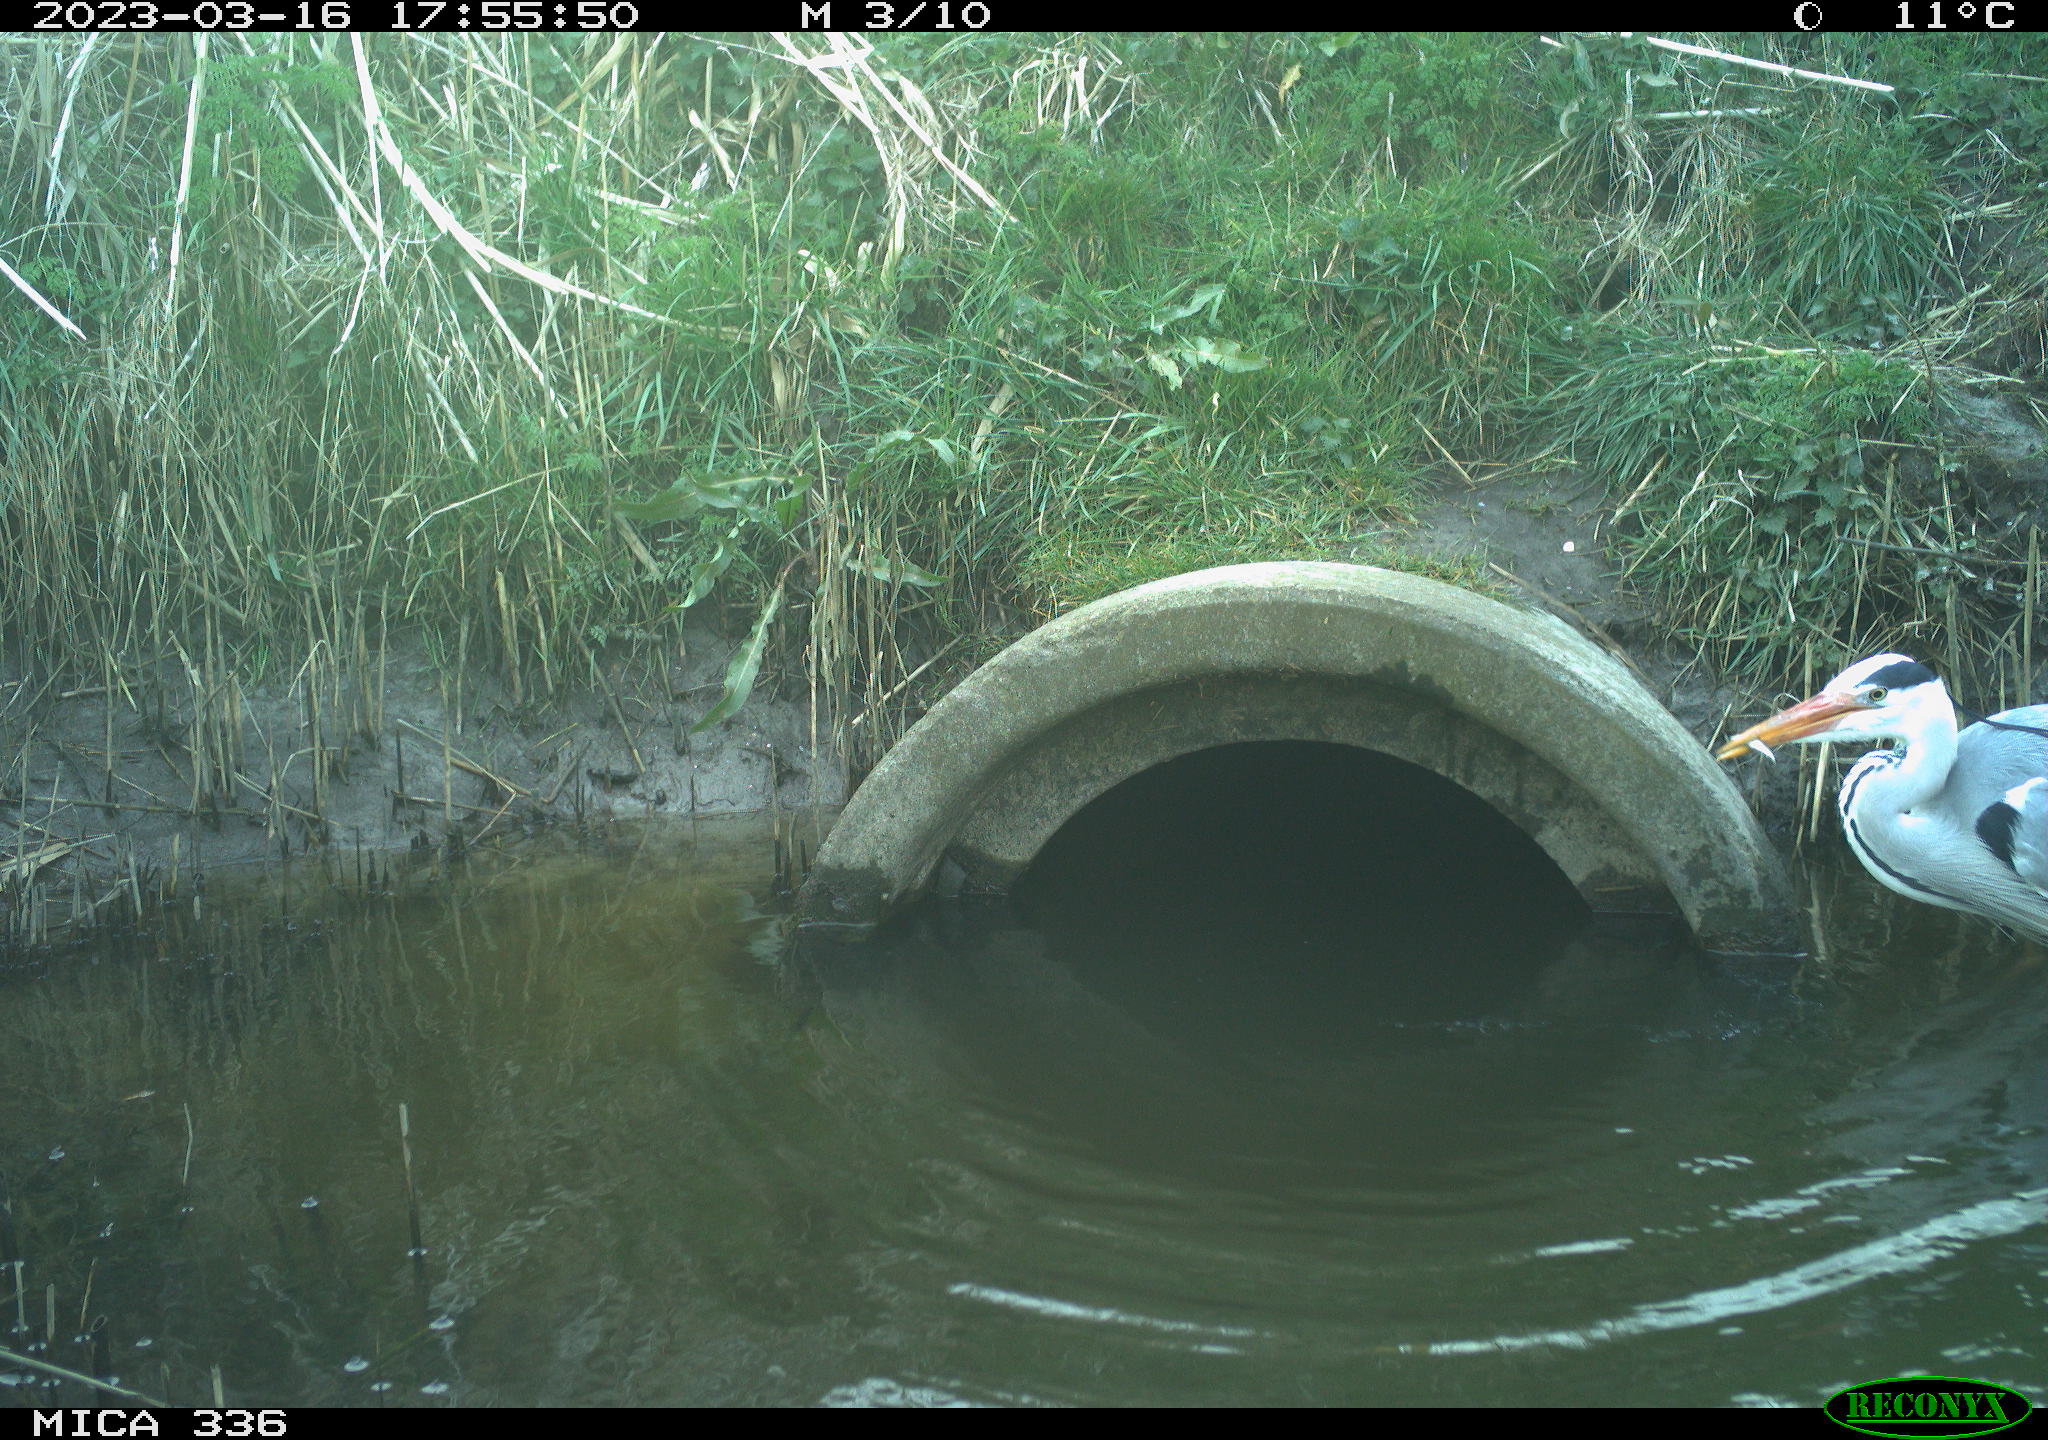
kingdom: Animalia
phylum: Chordata
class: Aves
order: Pelecaniformes
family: Ardeidae
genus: Ardea
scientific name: Ardea cinerea
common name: Grey heron
